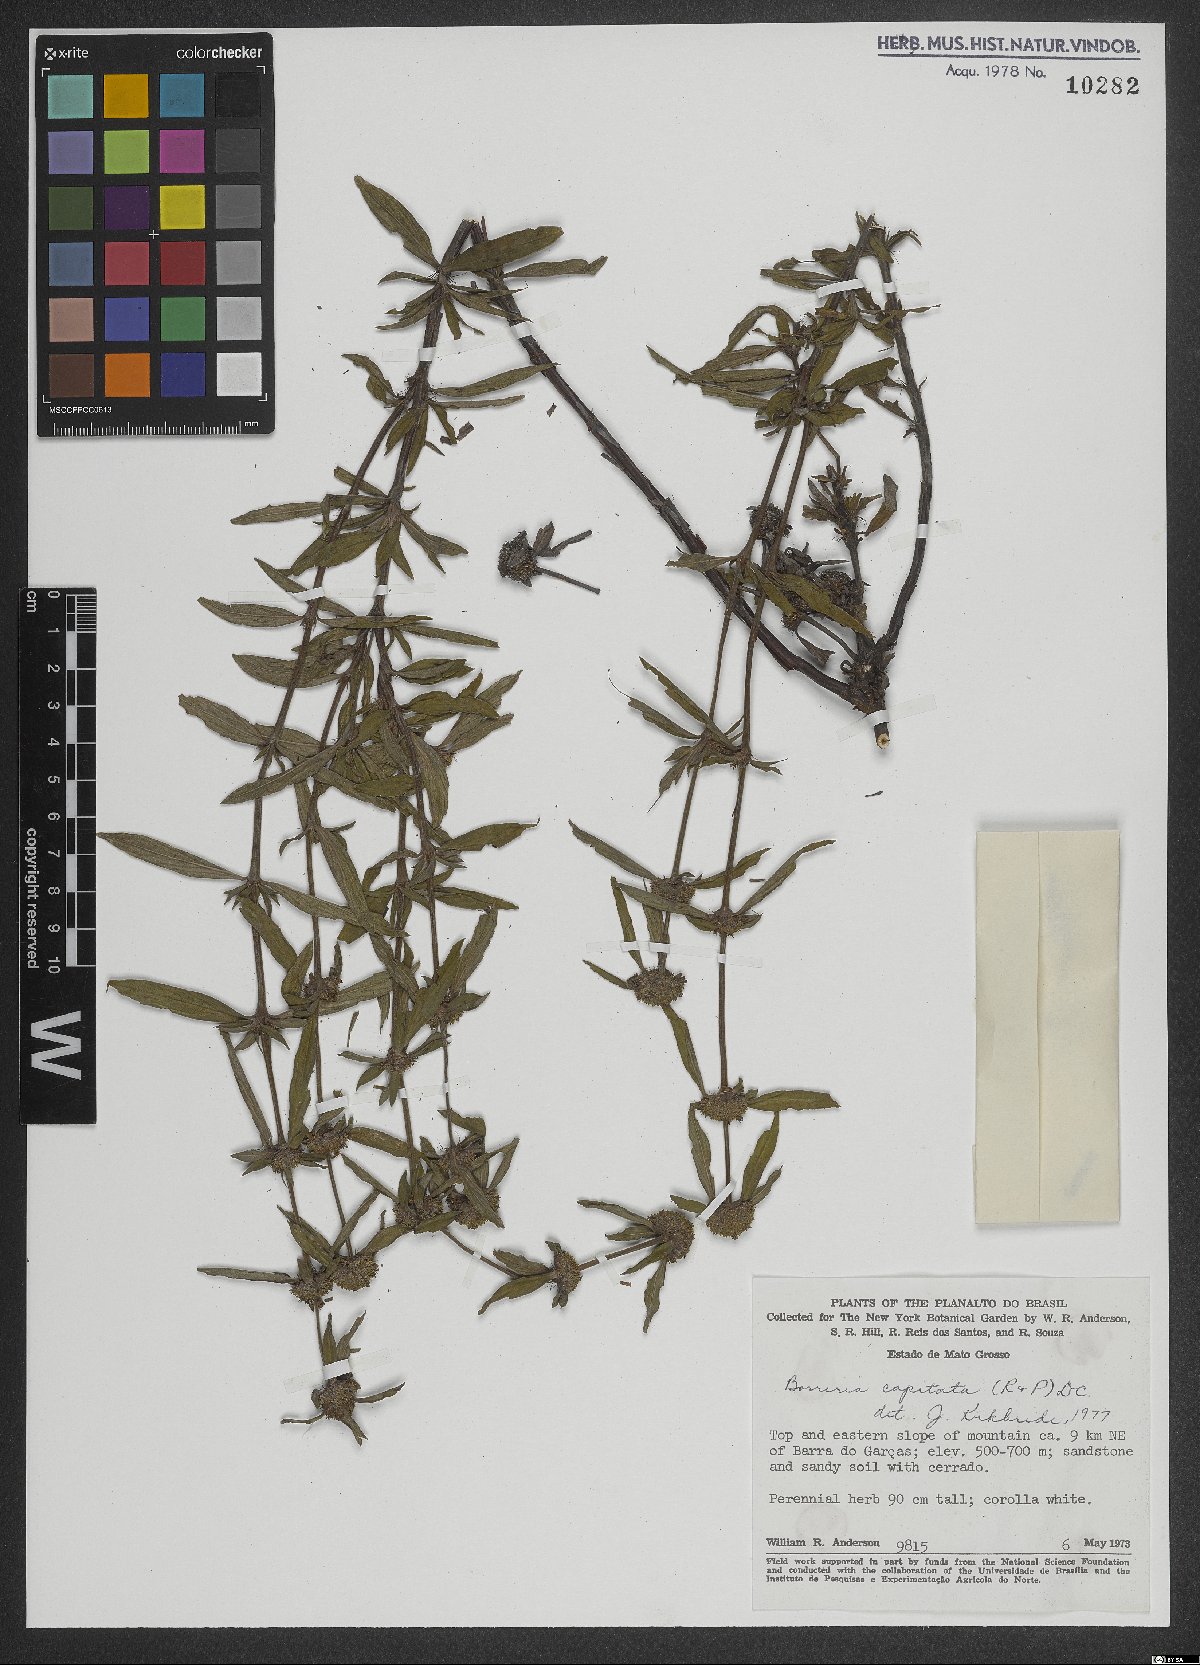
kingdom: Plantae
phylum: Tracheophyta
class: Magnoliopsida
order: Gentianales
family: Rubiaceae
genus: Spermacoce
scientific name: Spermacoce capitata
